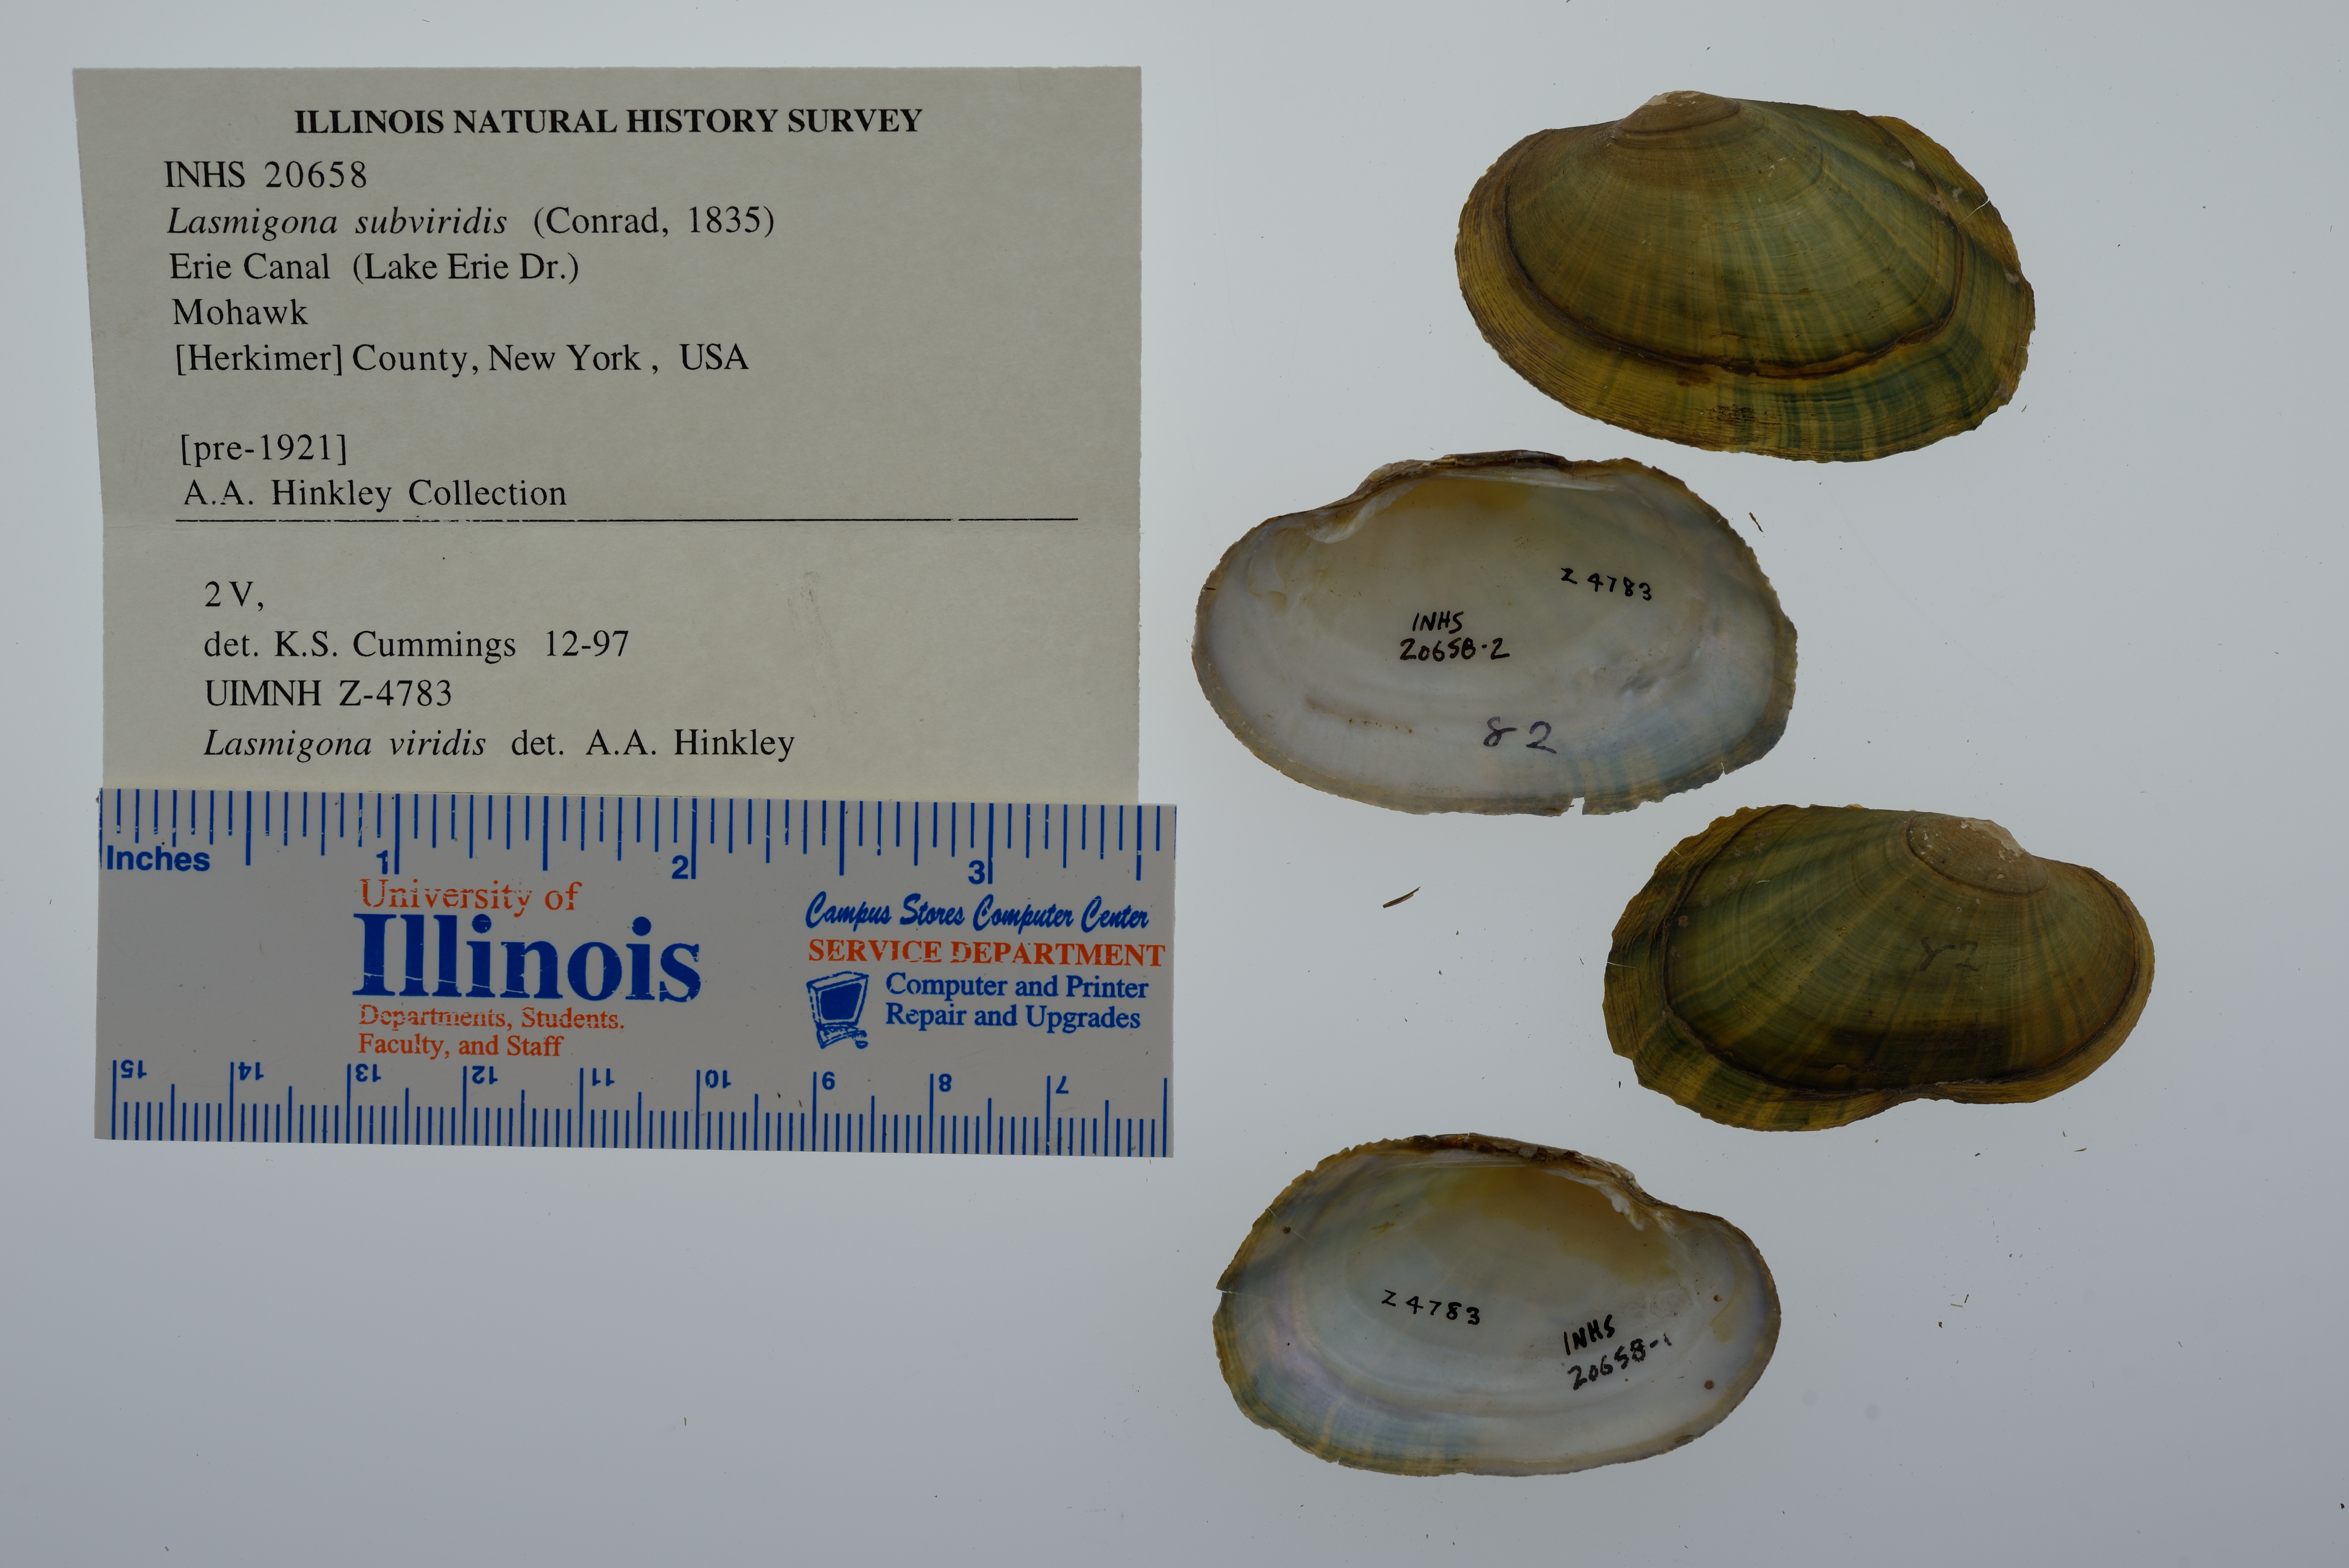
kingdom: Animalia
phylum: Mollusca
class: Bivalvia
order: Unionida
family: Unionidae
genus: Lasmigona
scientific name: Lasmigona subviridis
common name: Green floater
